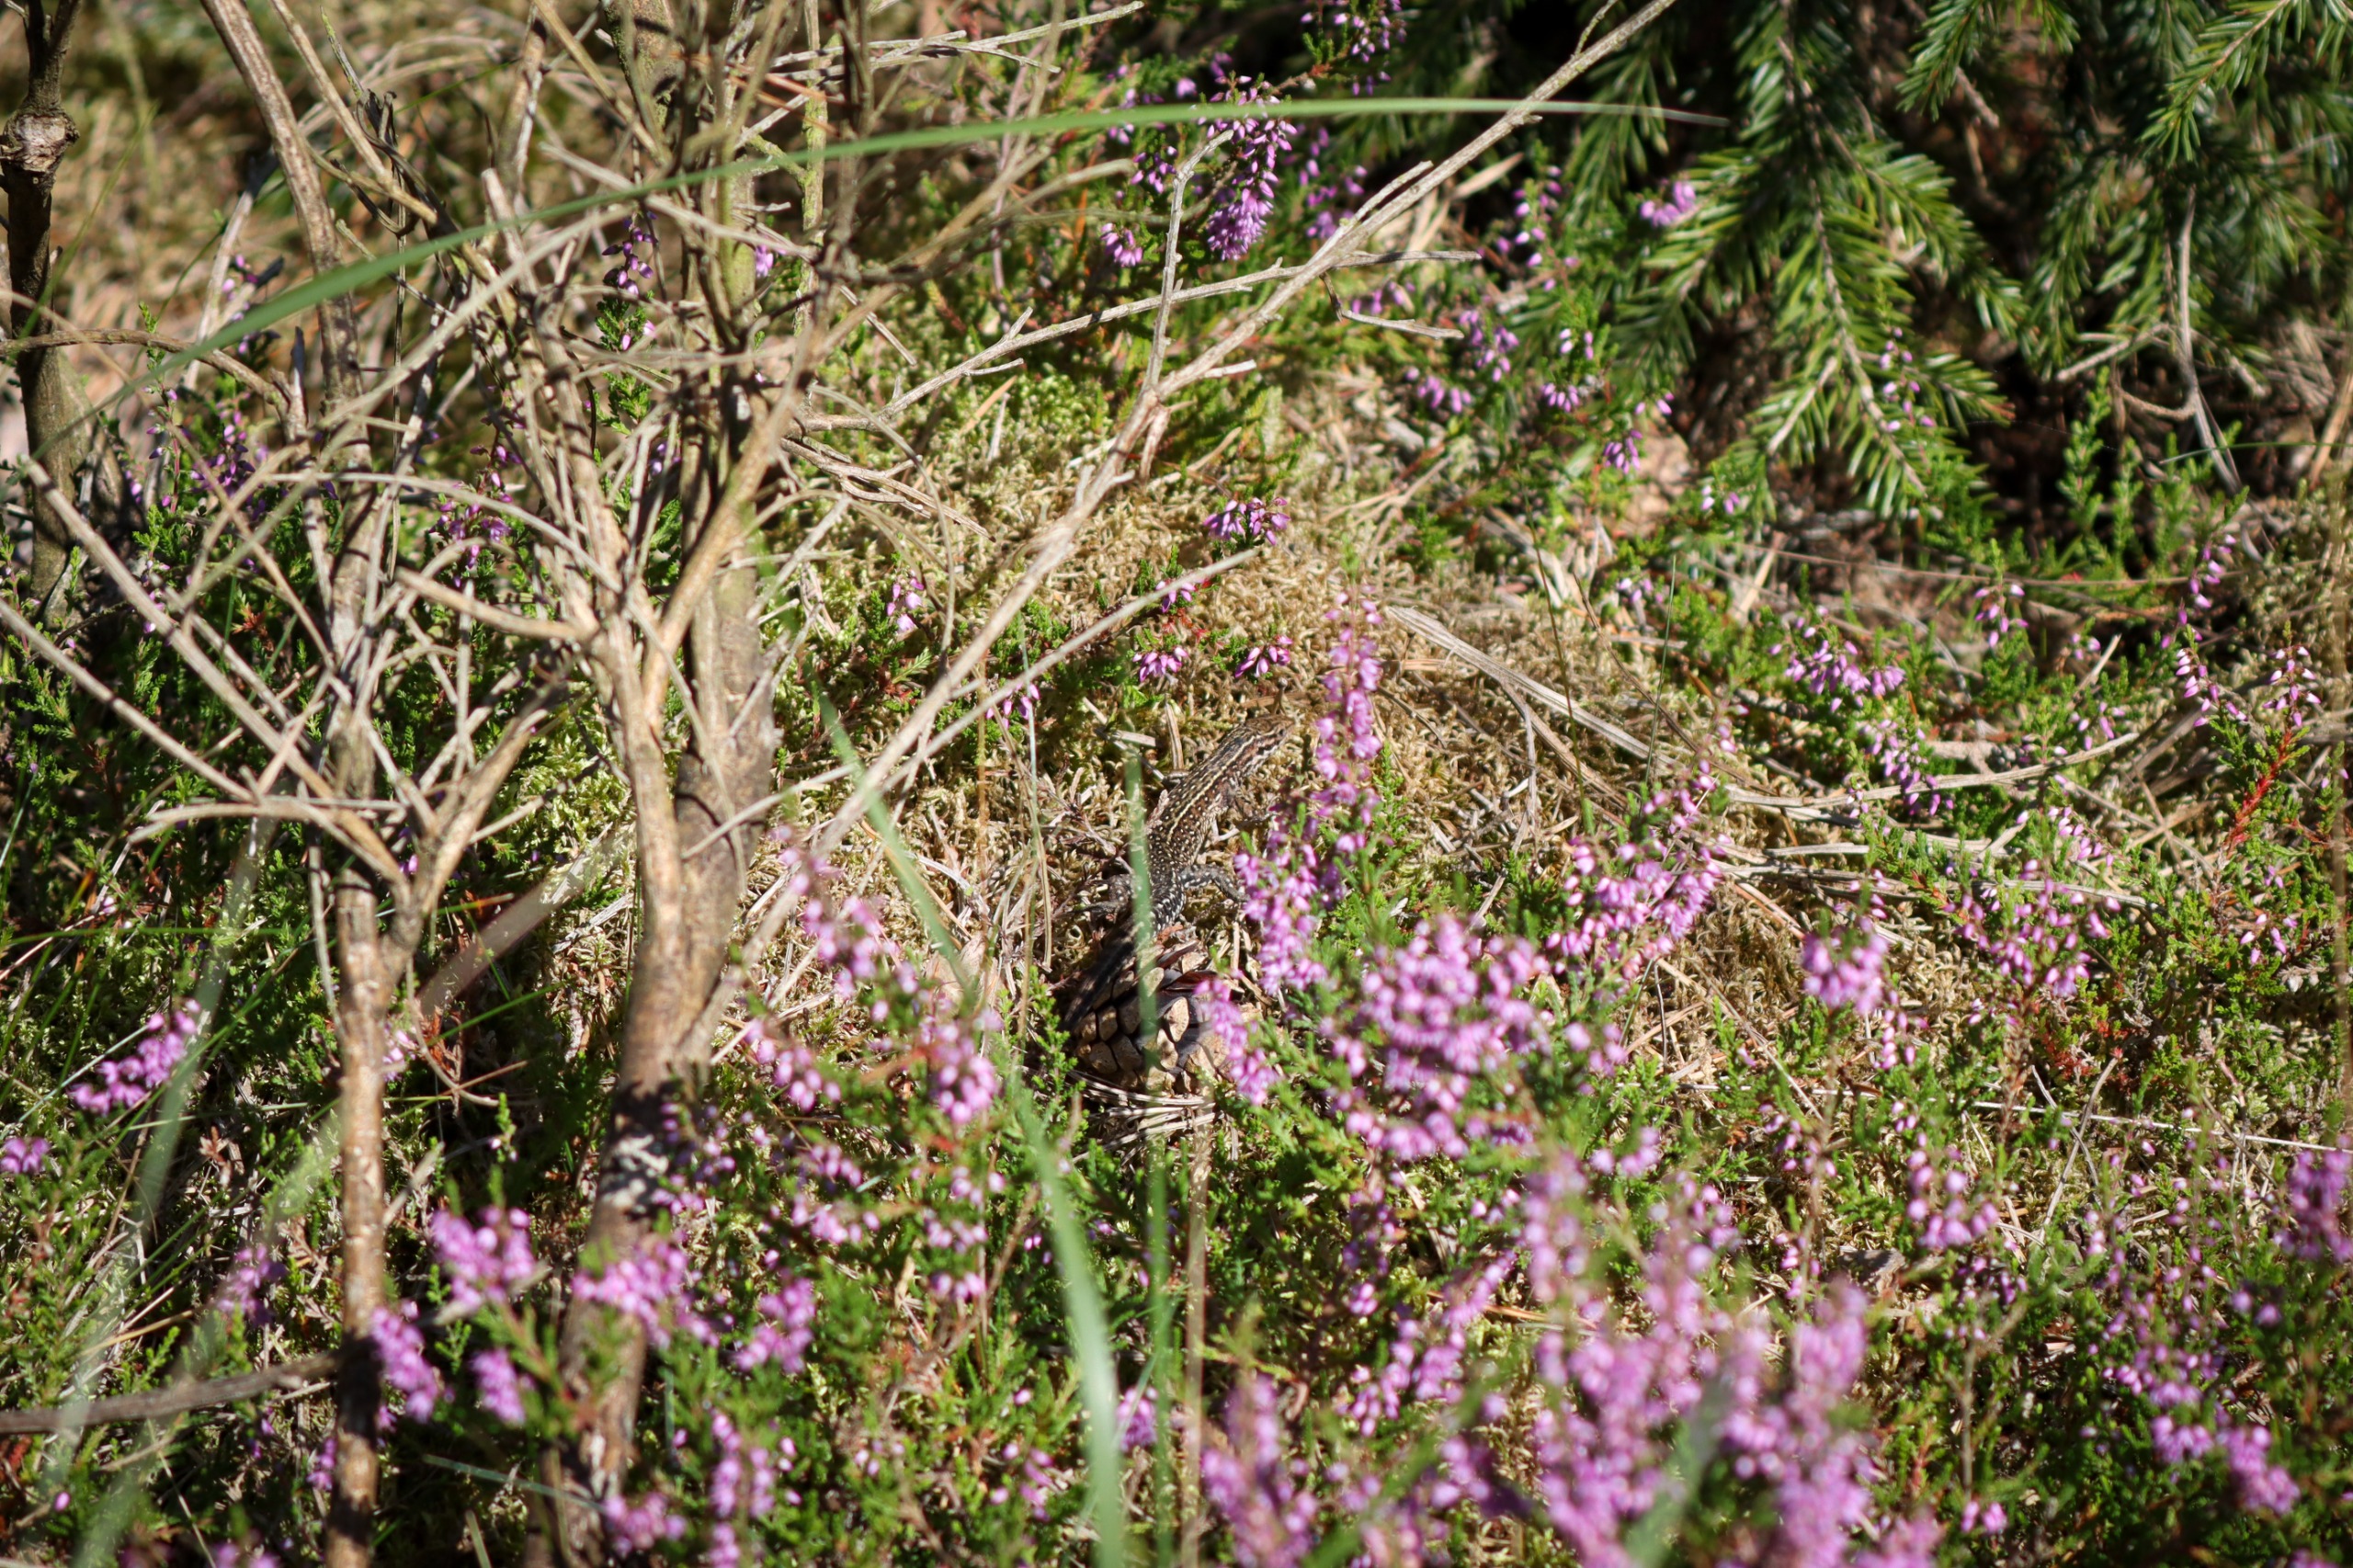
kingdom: Animalia
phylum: Chordata
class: Squamata
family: Lacertidae
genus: Zootoca
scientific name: Zootoca vivipara
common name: Skovfirben
